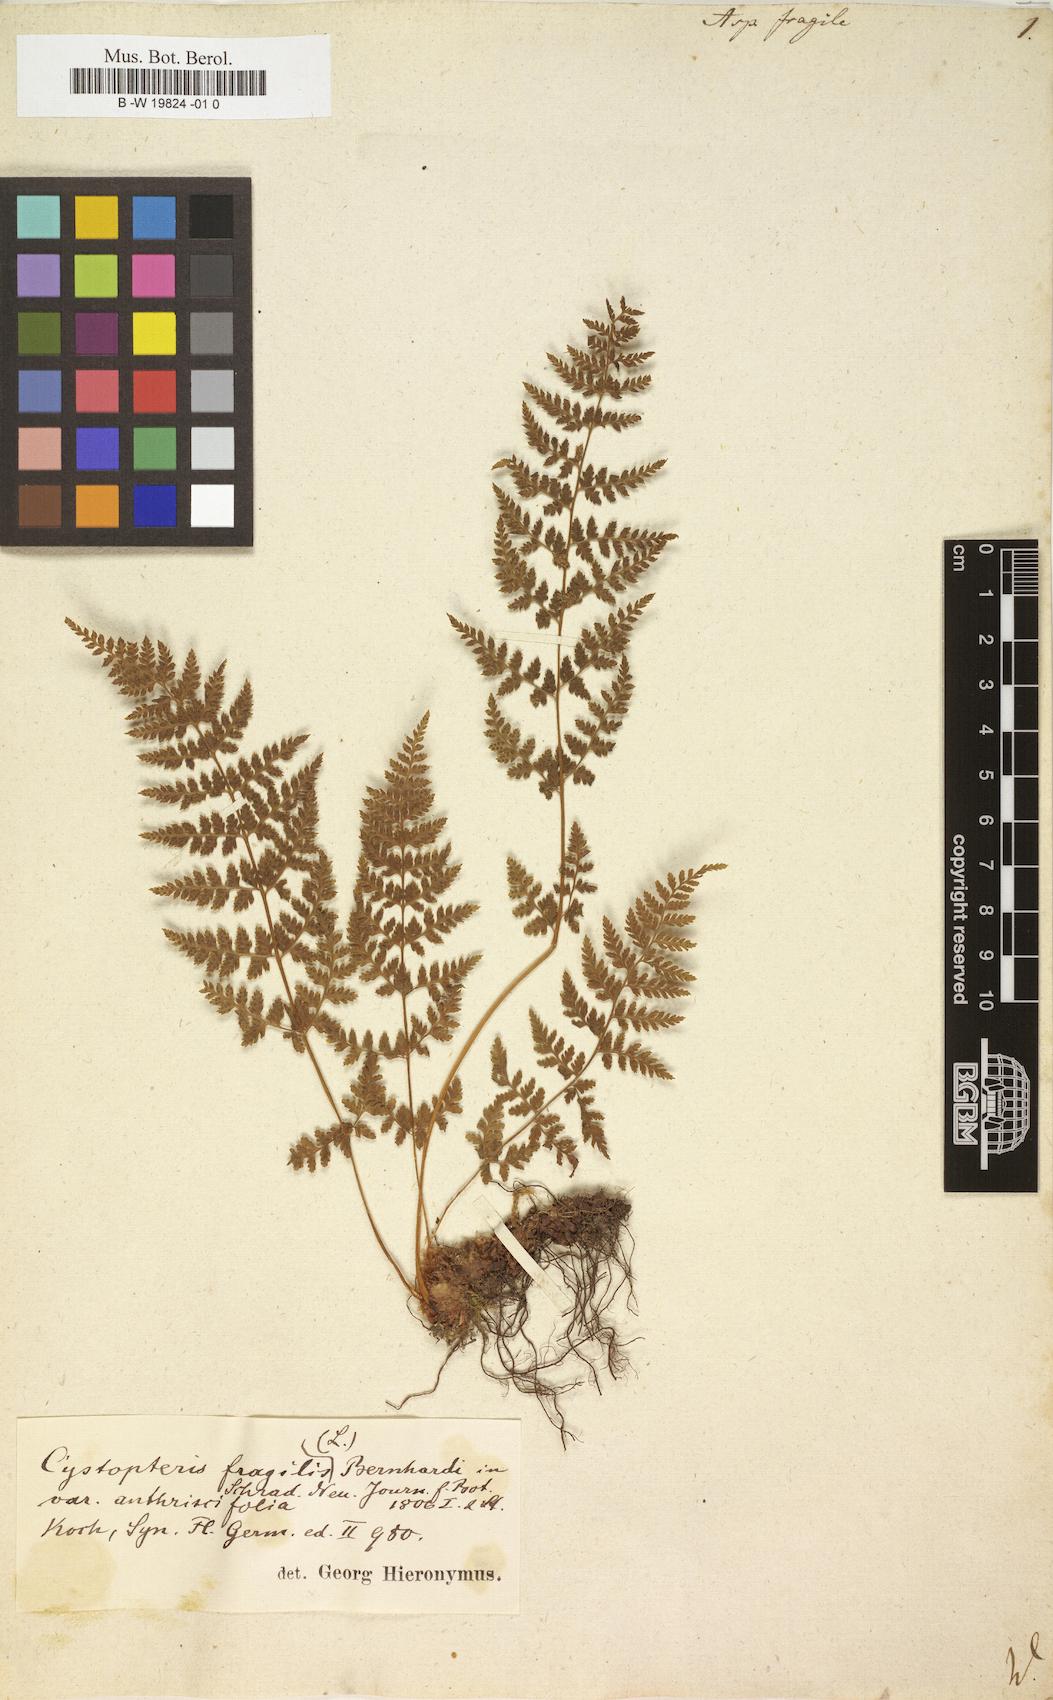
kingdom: Plantae
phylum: Tracheophyta
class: Polypodiopsida
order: Polypodiales
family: Cystopteridaceae
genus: Cystopteris
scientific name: Cystopteris fragilis
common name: Brittle bladder fern
